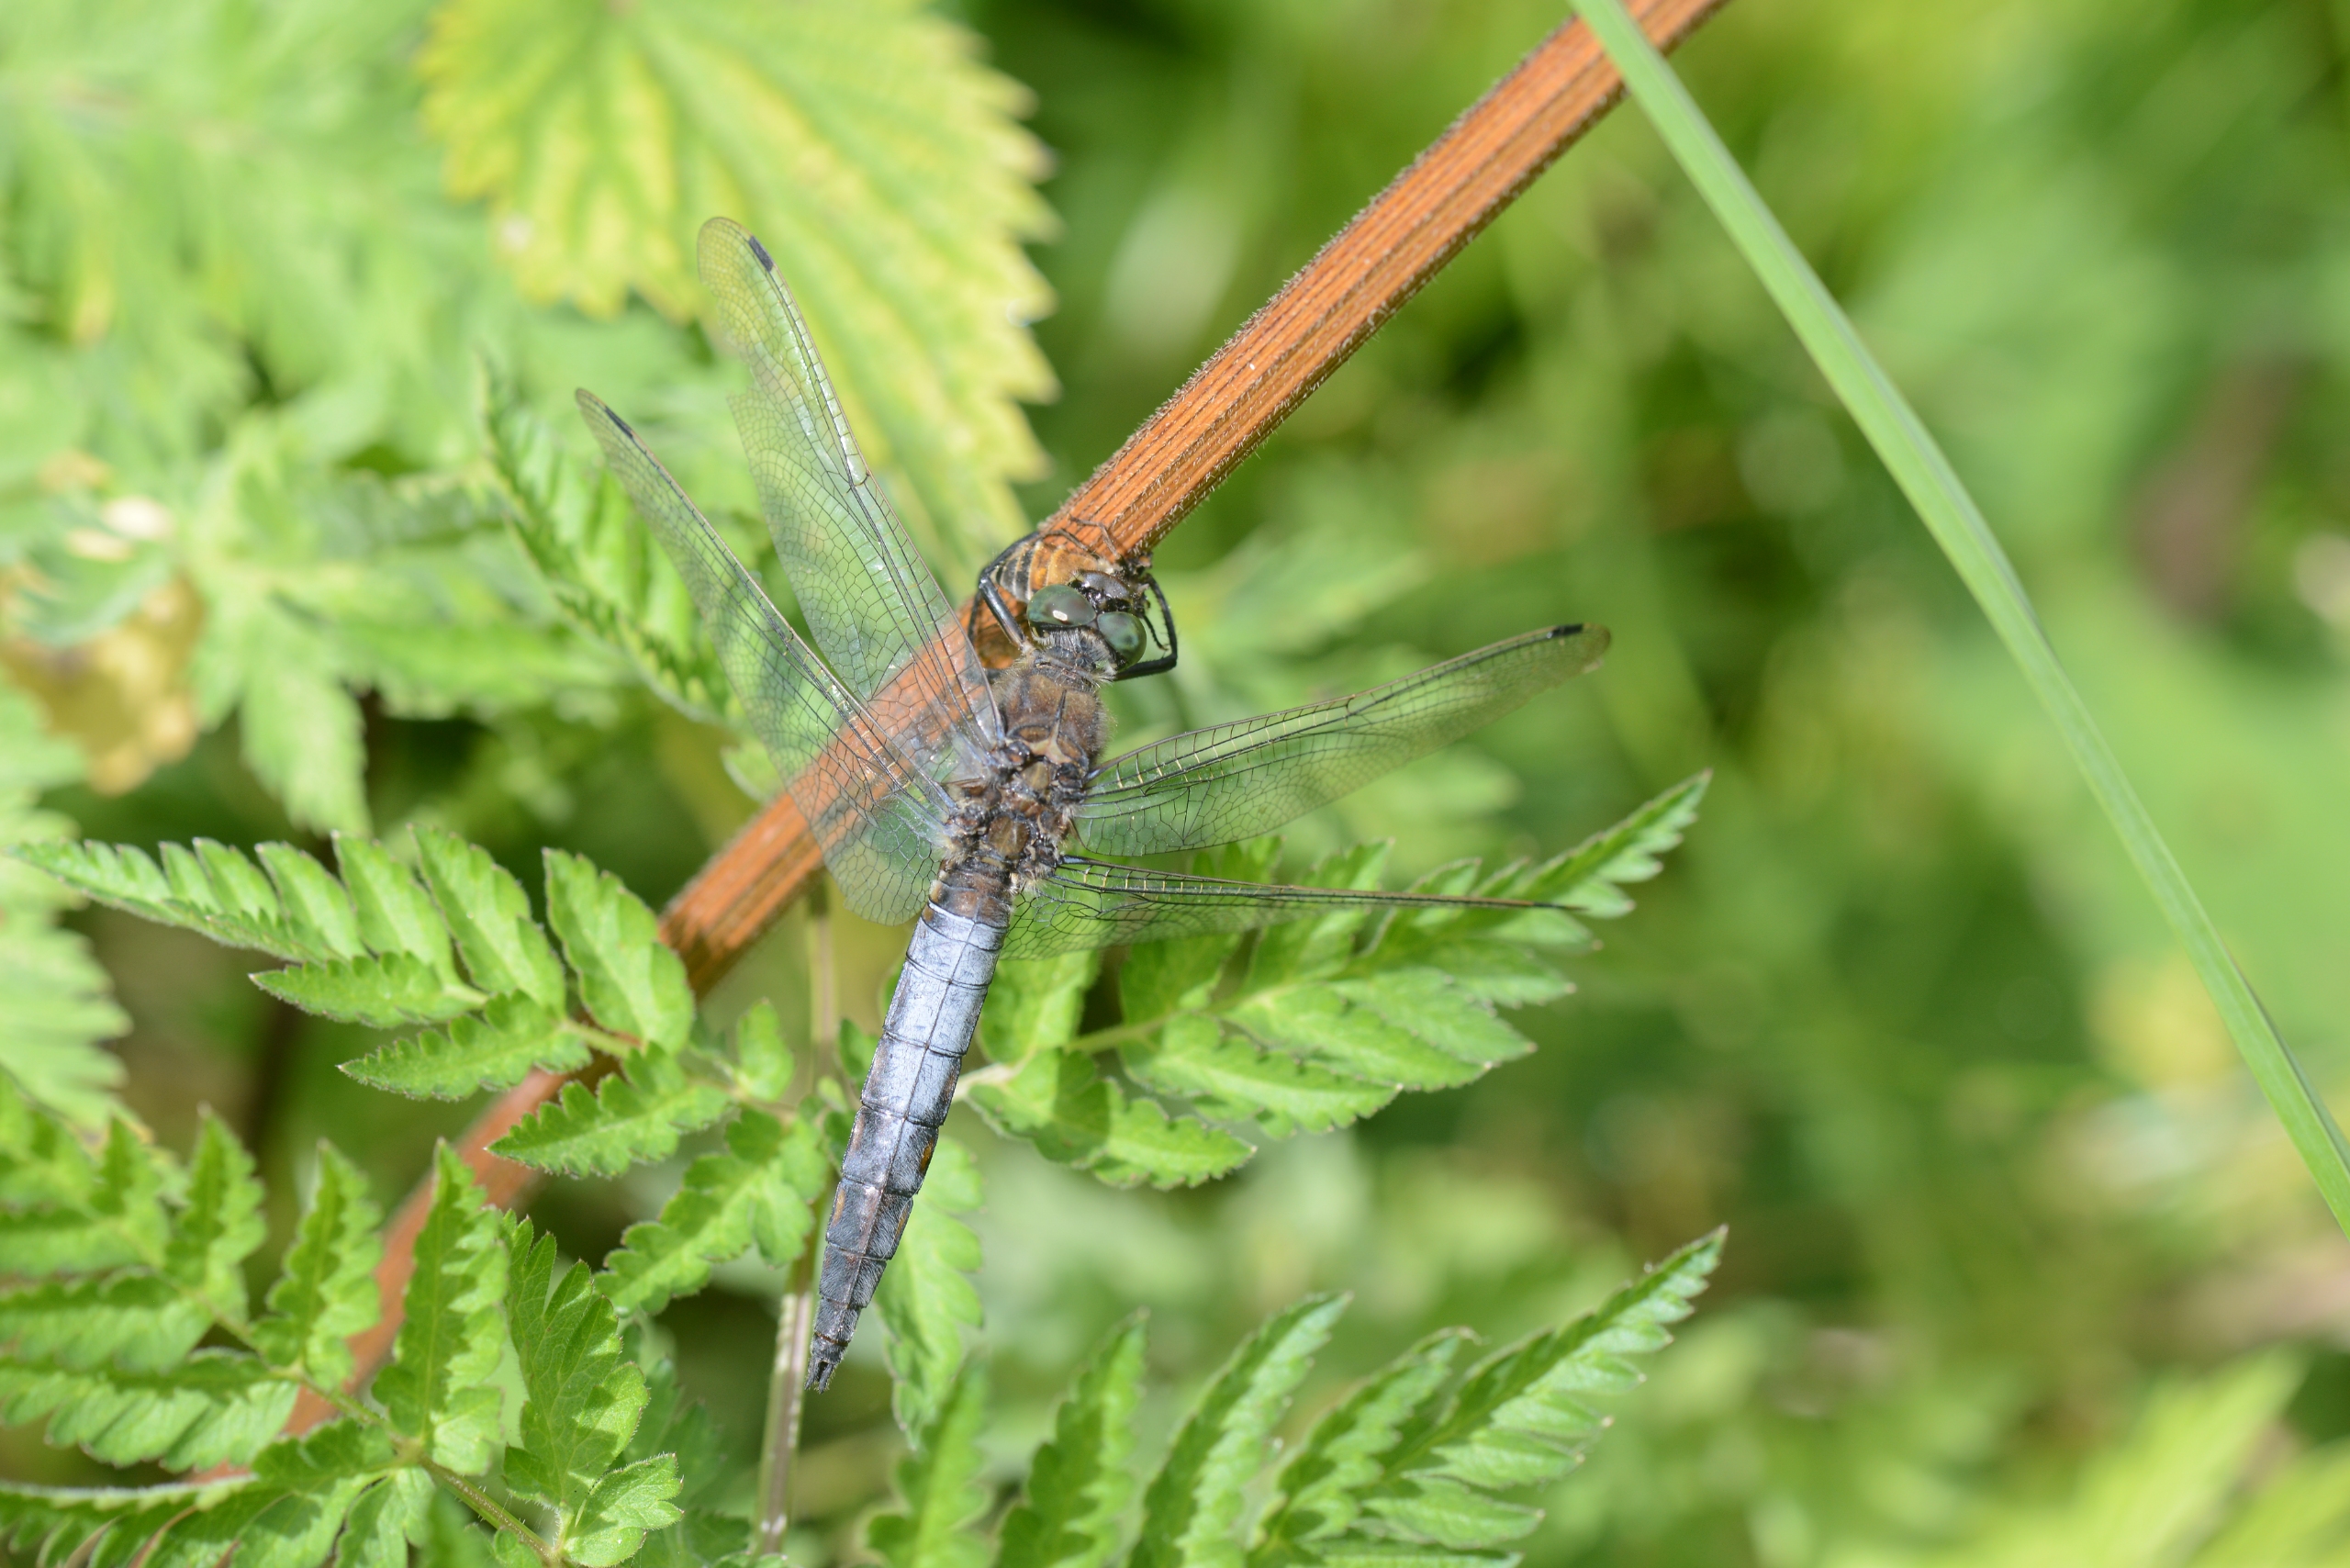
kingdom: Animalia
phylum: Arthropoda
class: Insecta
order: Odonata
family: Libellulidae
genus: Orthetrum
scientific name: Orthetrum cancellatum
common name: Stor blåpil
